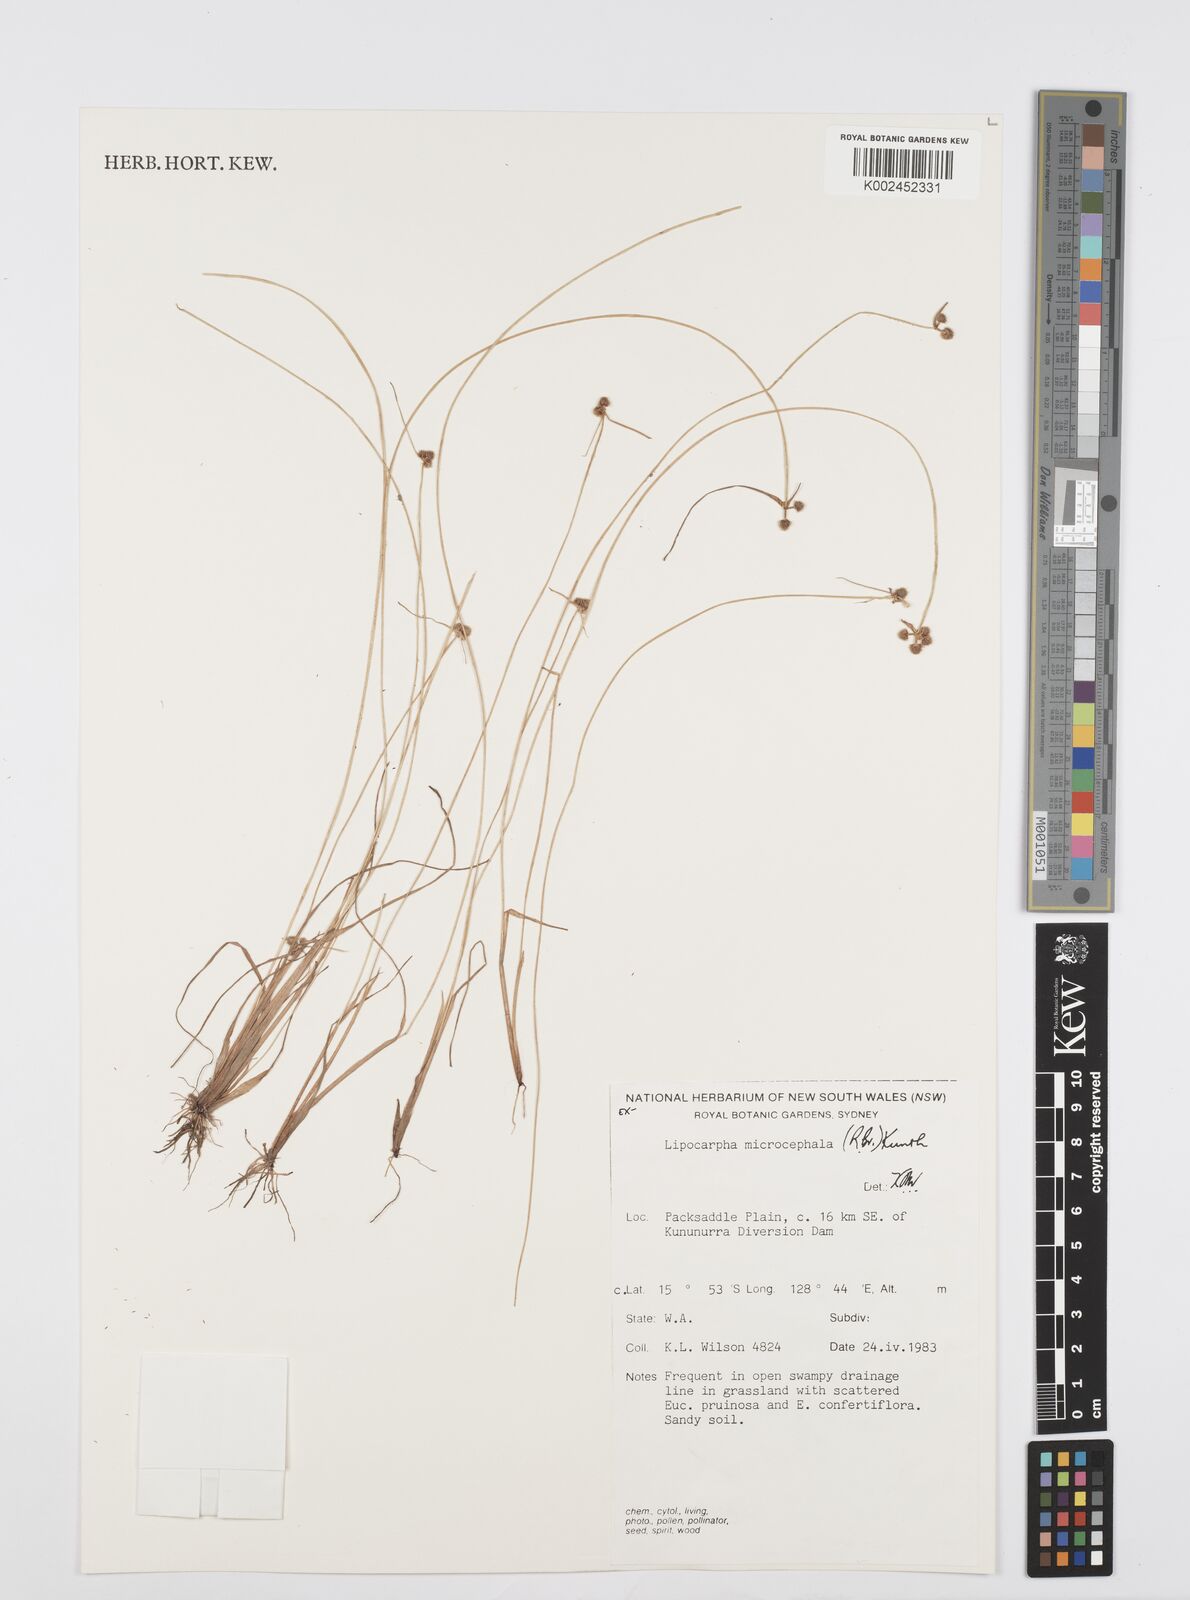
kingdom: Plantae
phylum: Tracheophyta
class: Liliopsida
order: Poales
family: Cyperaceae
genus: Cyperus
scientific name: Cyperus
